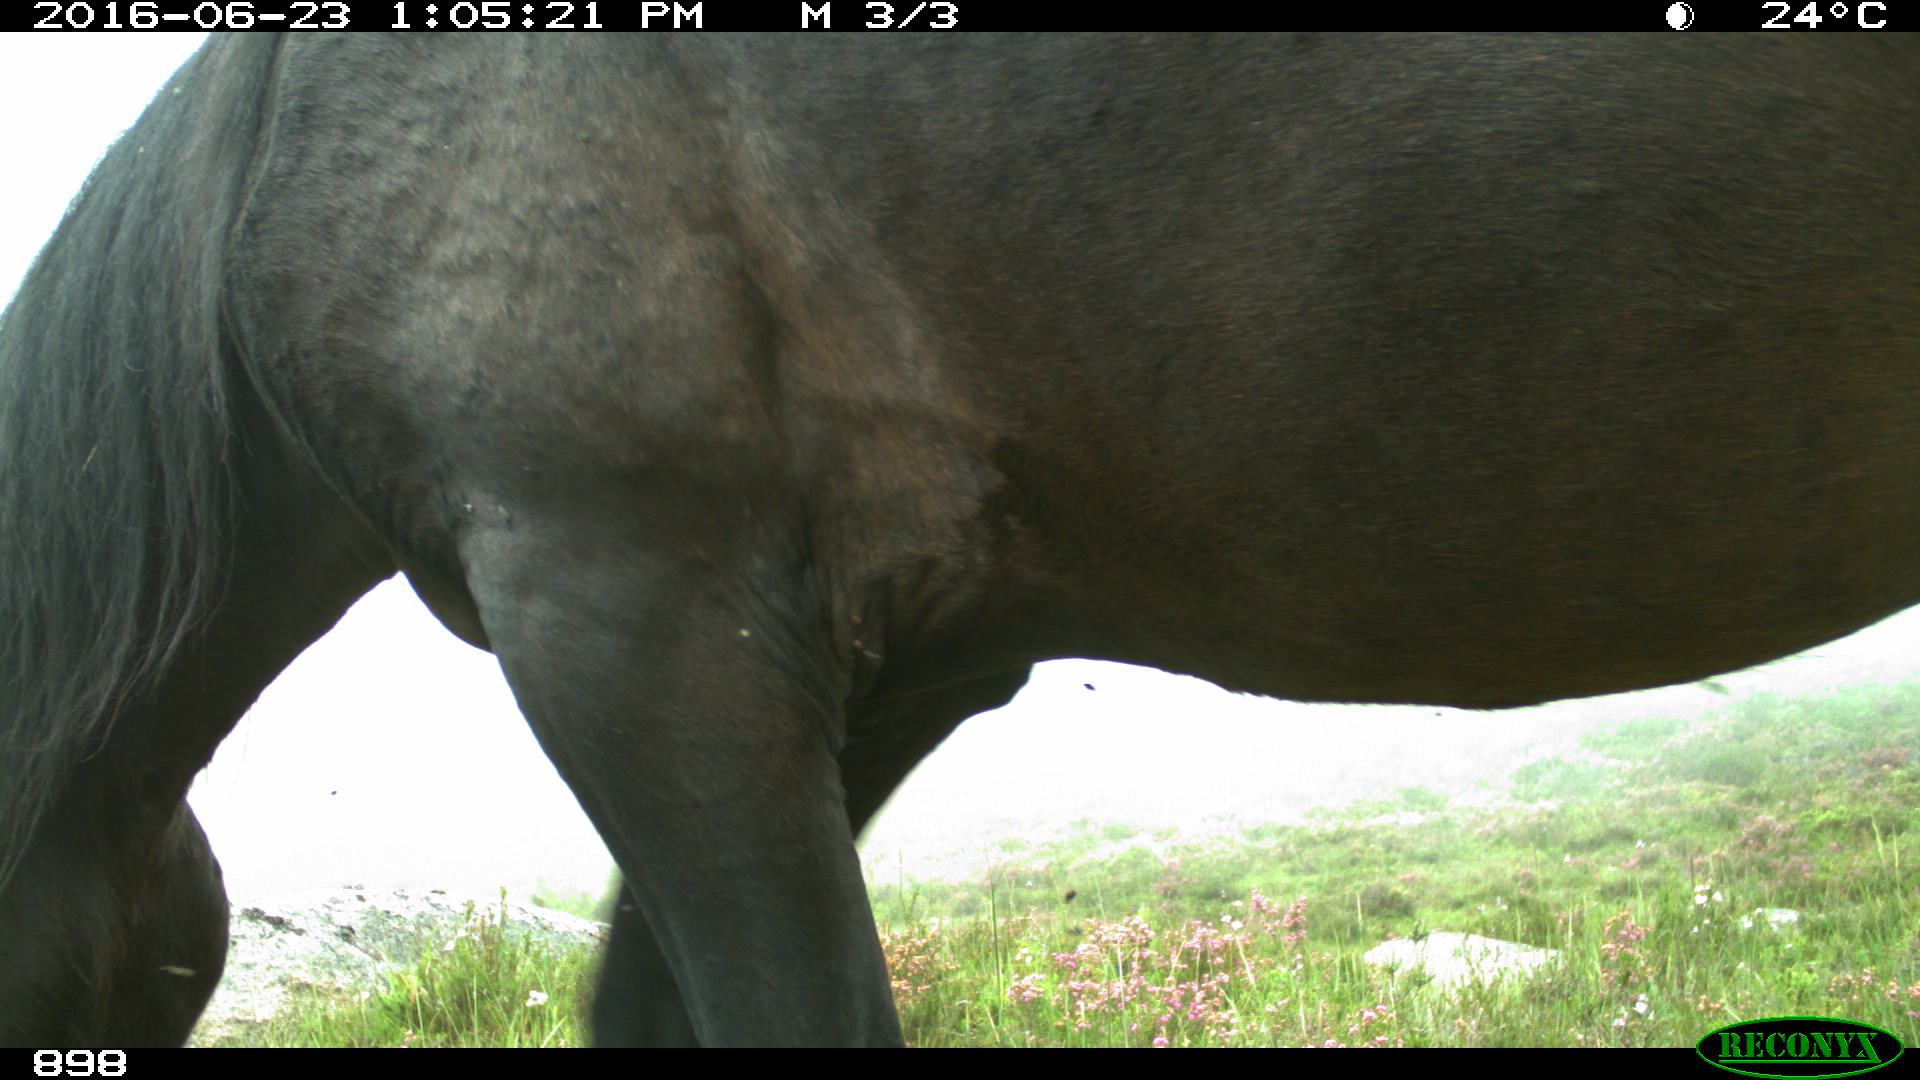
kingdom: Animalia
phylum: Chordata
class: Mammalia
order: Perissodactyla
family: Equidae
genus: Equus
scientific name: Equus caballus
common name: Horse
